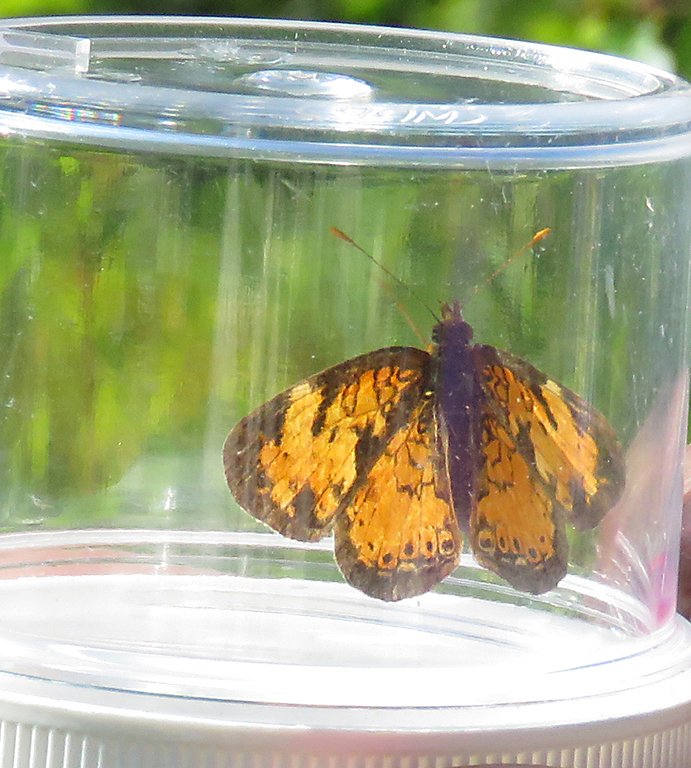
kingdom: Animalia
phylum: Arthropoda
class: Insecta
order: Lepidoptera
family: Nymphalidae
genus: Phyciodes
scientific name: Phyciodes tharos
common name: Northern Crescent
